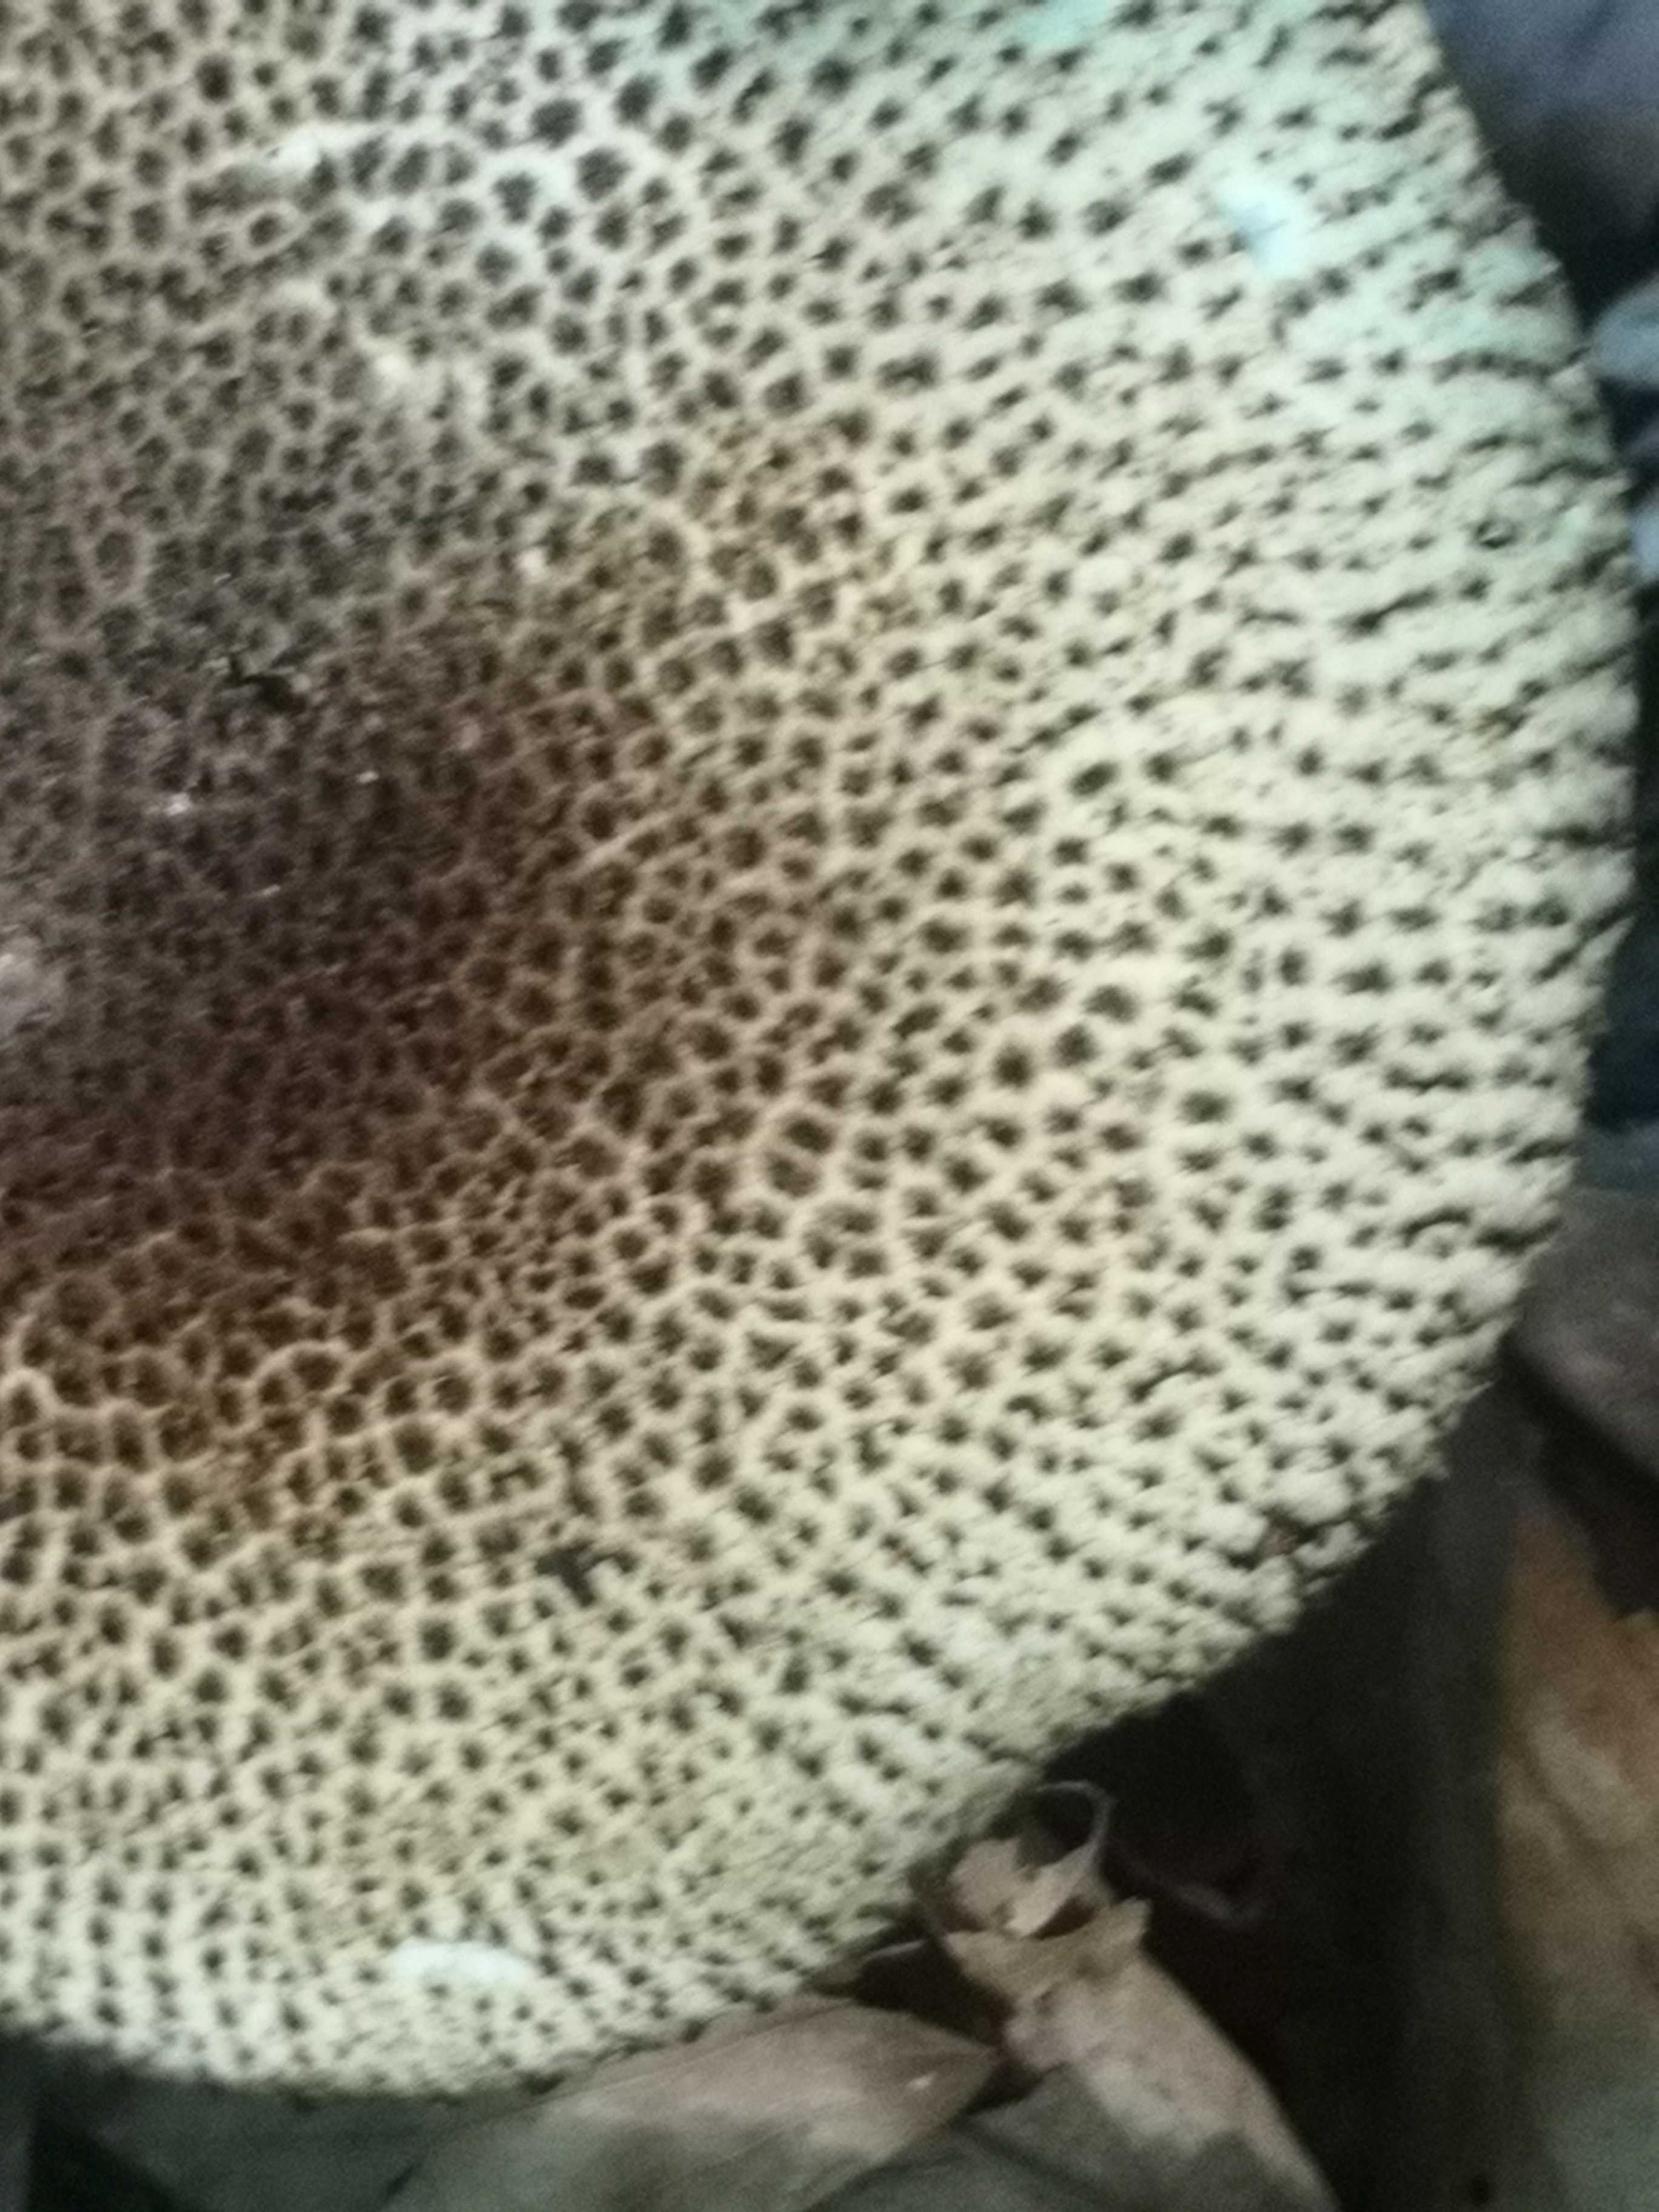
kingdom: Fungi
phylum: Basidiomycota
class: Agaricomycetes
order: Agaricales
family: Agaricaceae
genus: Echinoderma
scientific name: Echinoderma hystrix
